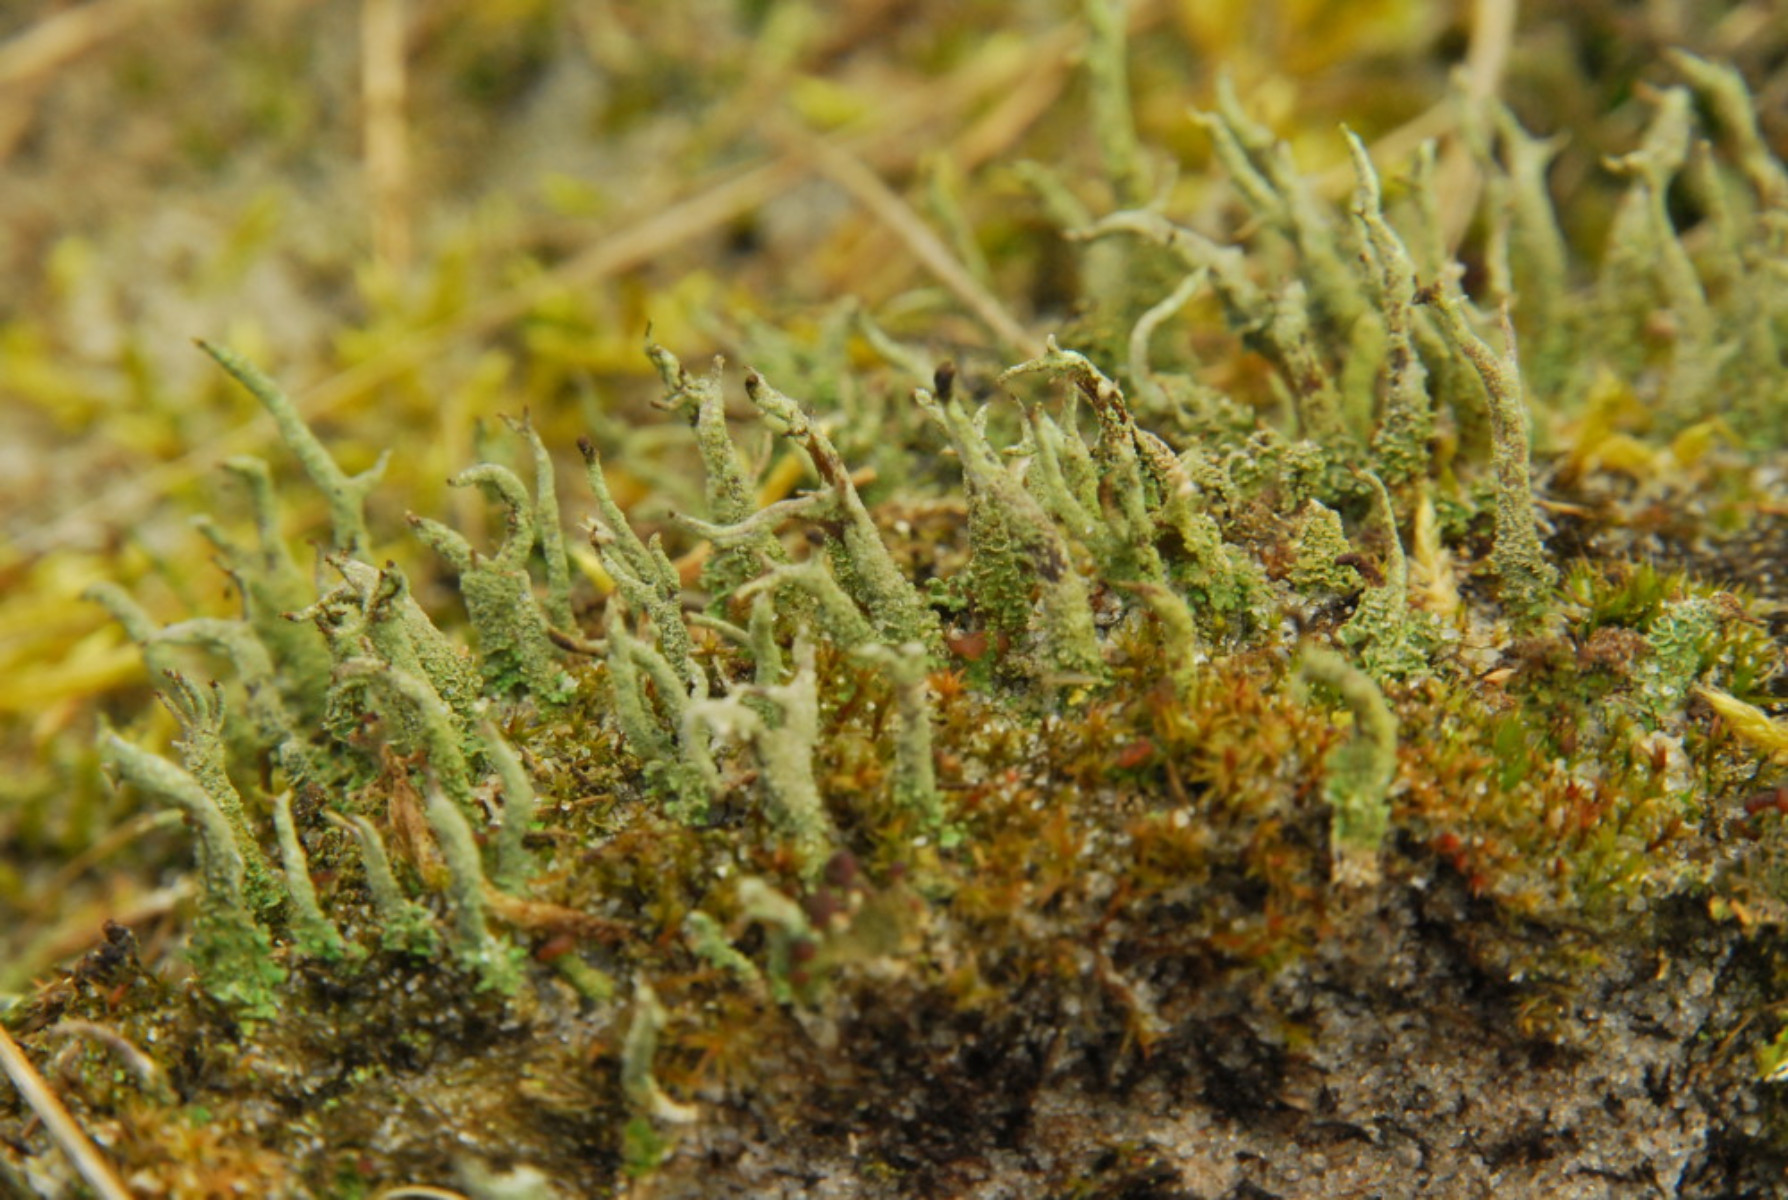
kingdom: Fungi
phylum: Ascomycota
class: Lecanoromycetes
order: Lecanorales
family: Cladoniaceae
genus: Cladonia
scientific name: Cladonia glauca
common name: grågrøn bægerlav
